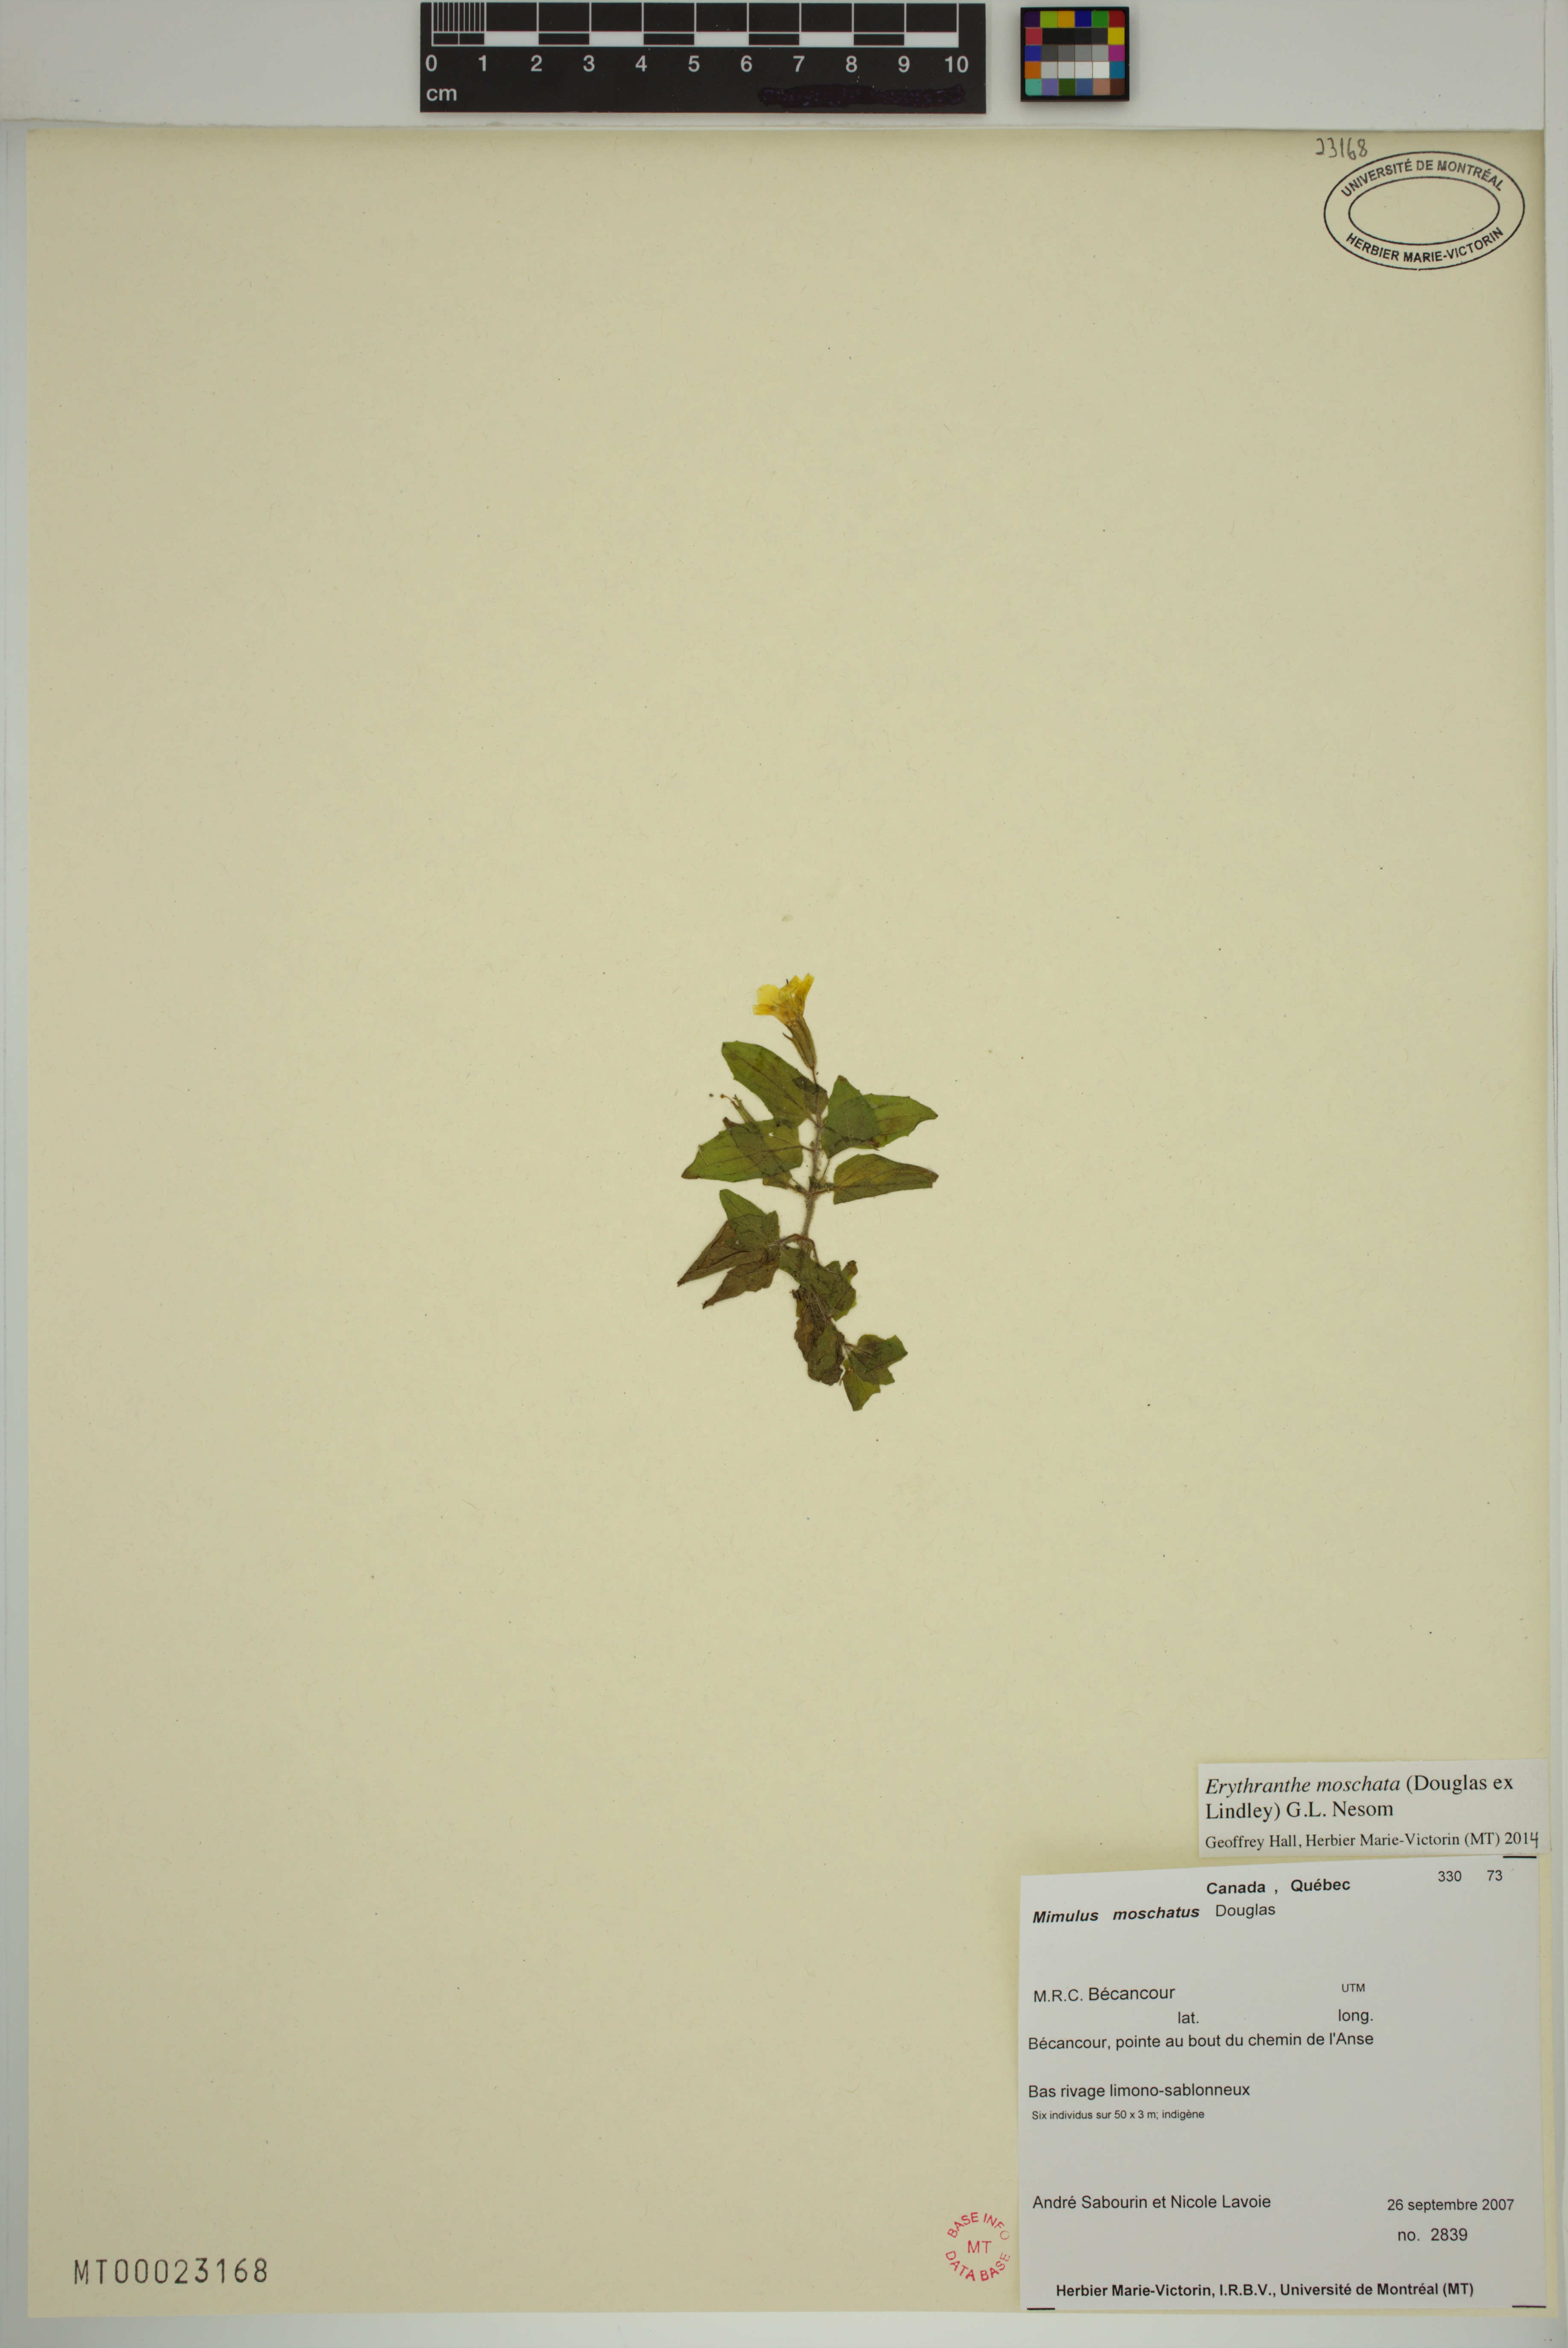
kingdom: Plantae
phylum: Tracheophyta
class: Magnoliopsida
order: Lamiales
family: Phrymaceae
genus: Erythranthe
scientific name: Erythranthe moschata
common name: Muskflower
